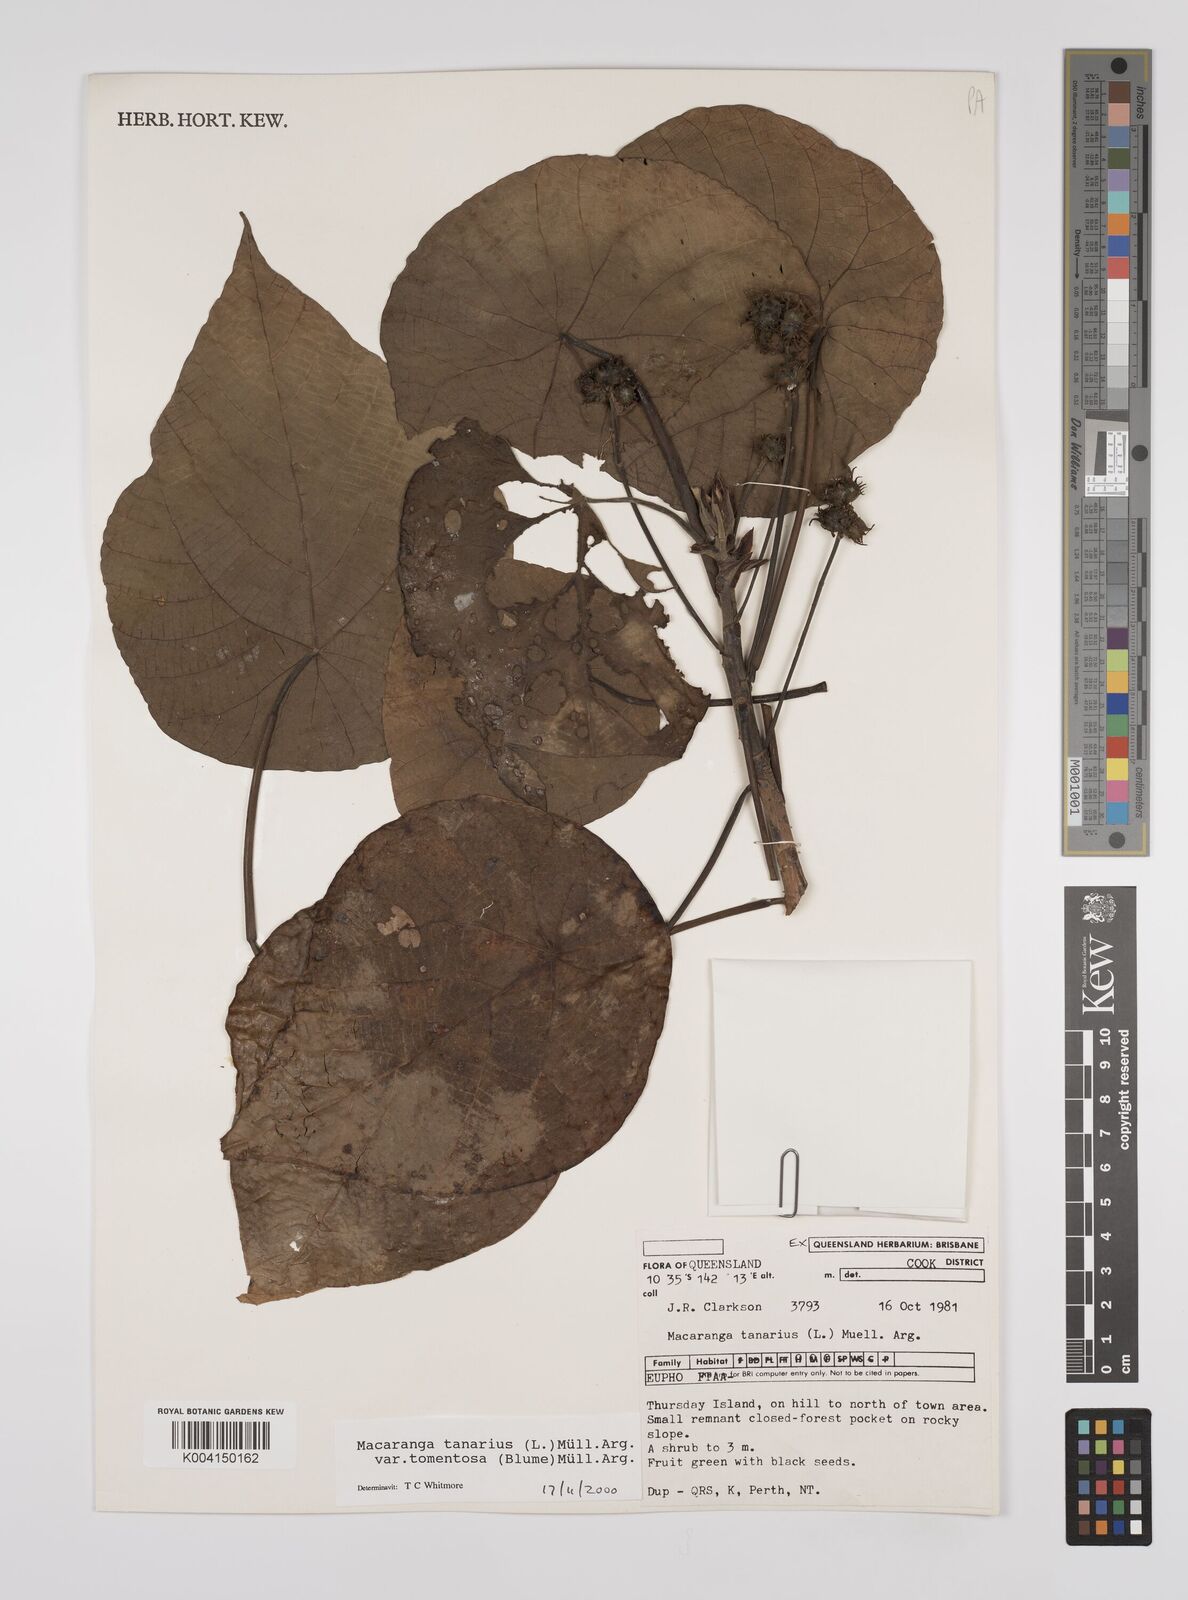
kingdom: Plantae
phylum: Tracheophyta
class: Magnoliopsida
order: Malpighiales
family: Euphorbiaceae
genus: Macaranga
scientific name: Macaranga tanarius
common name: Parasol leaf tree
